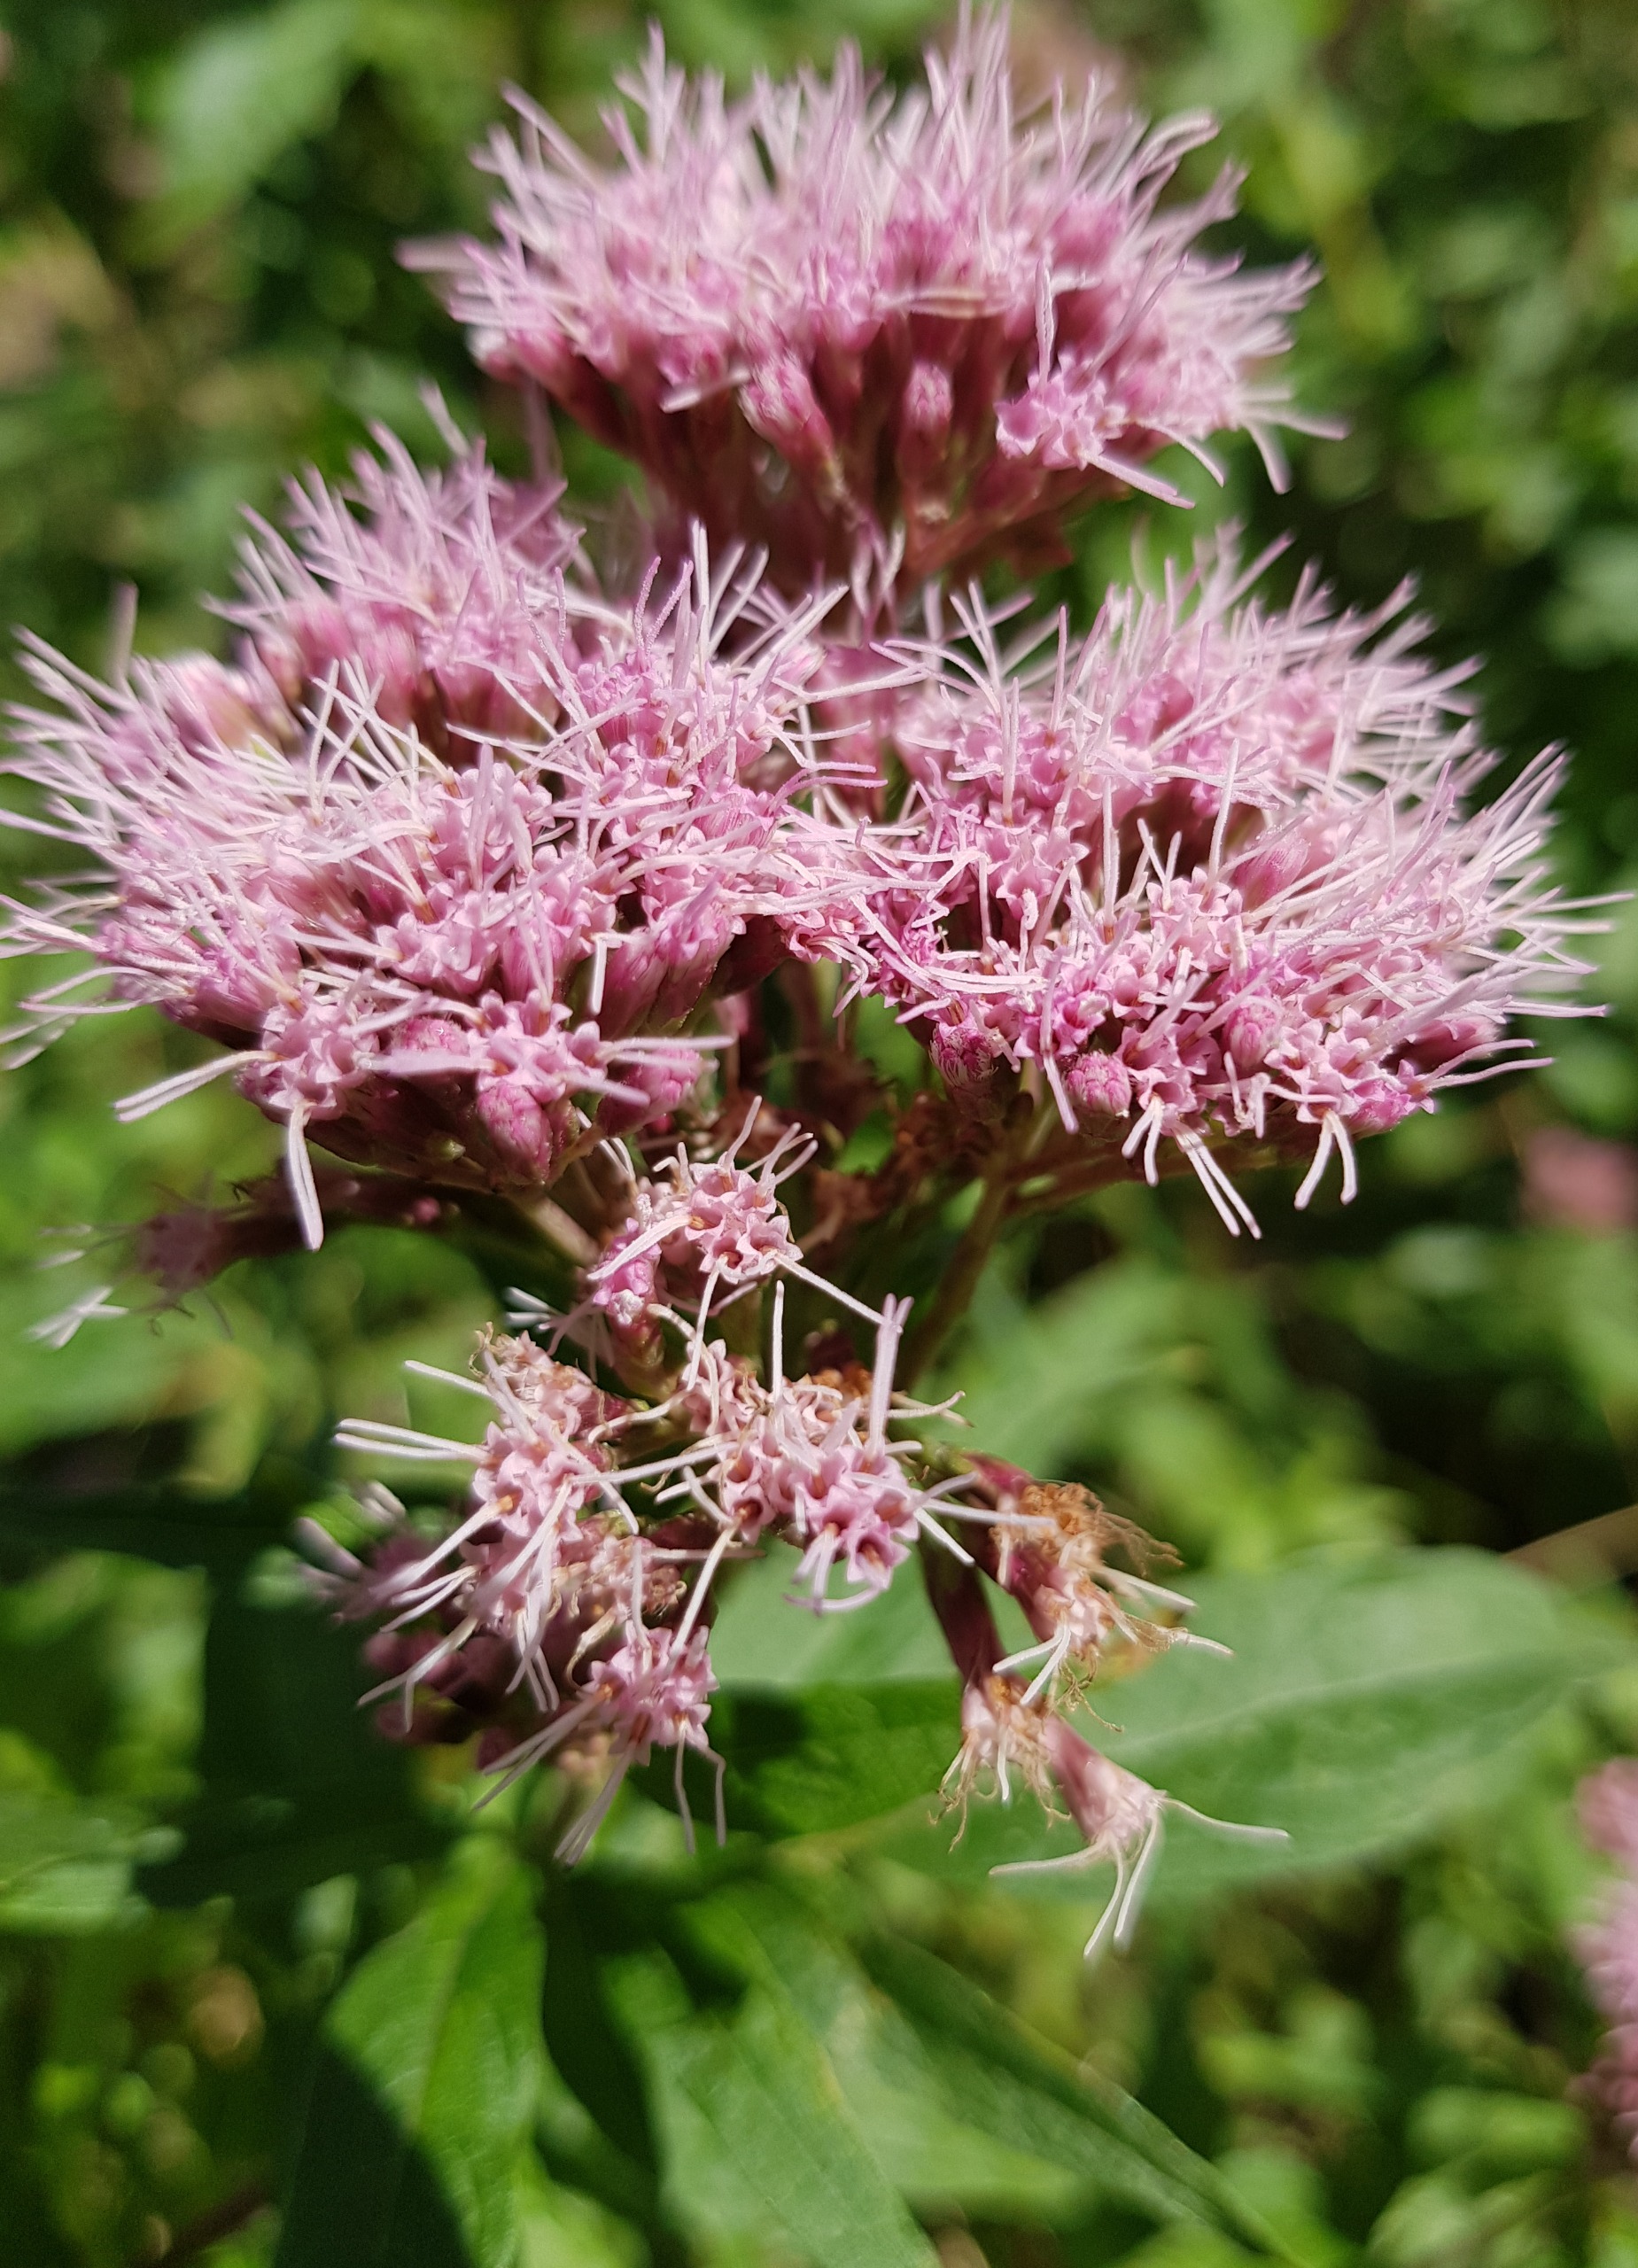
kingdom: Plantae
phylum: Tracheophyta
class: Magnoliopsida
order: Asterales
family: Asteraceae
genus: Eupatorium
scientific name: Eupatorium cannabinum
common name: Hjortetrøst
